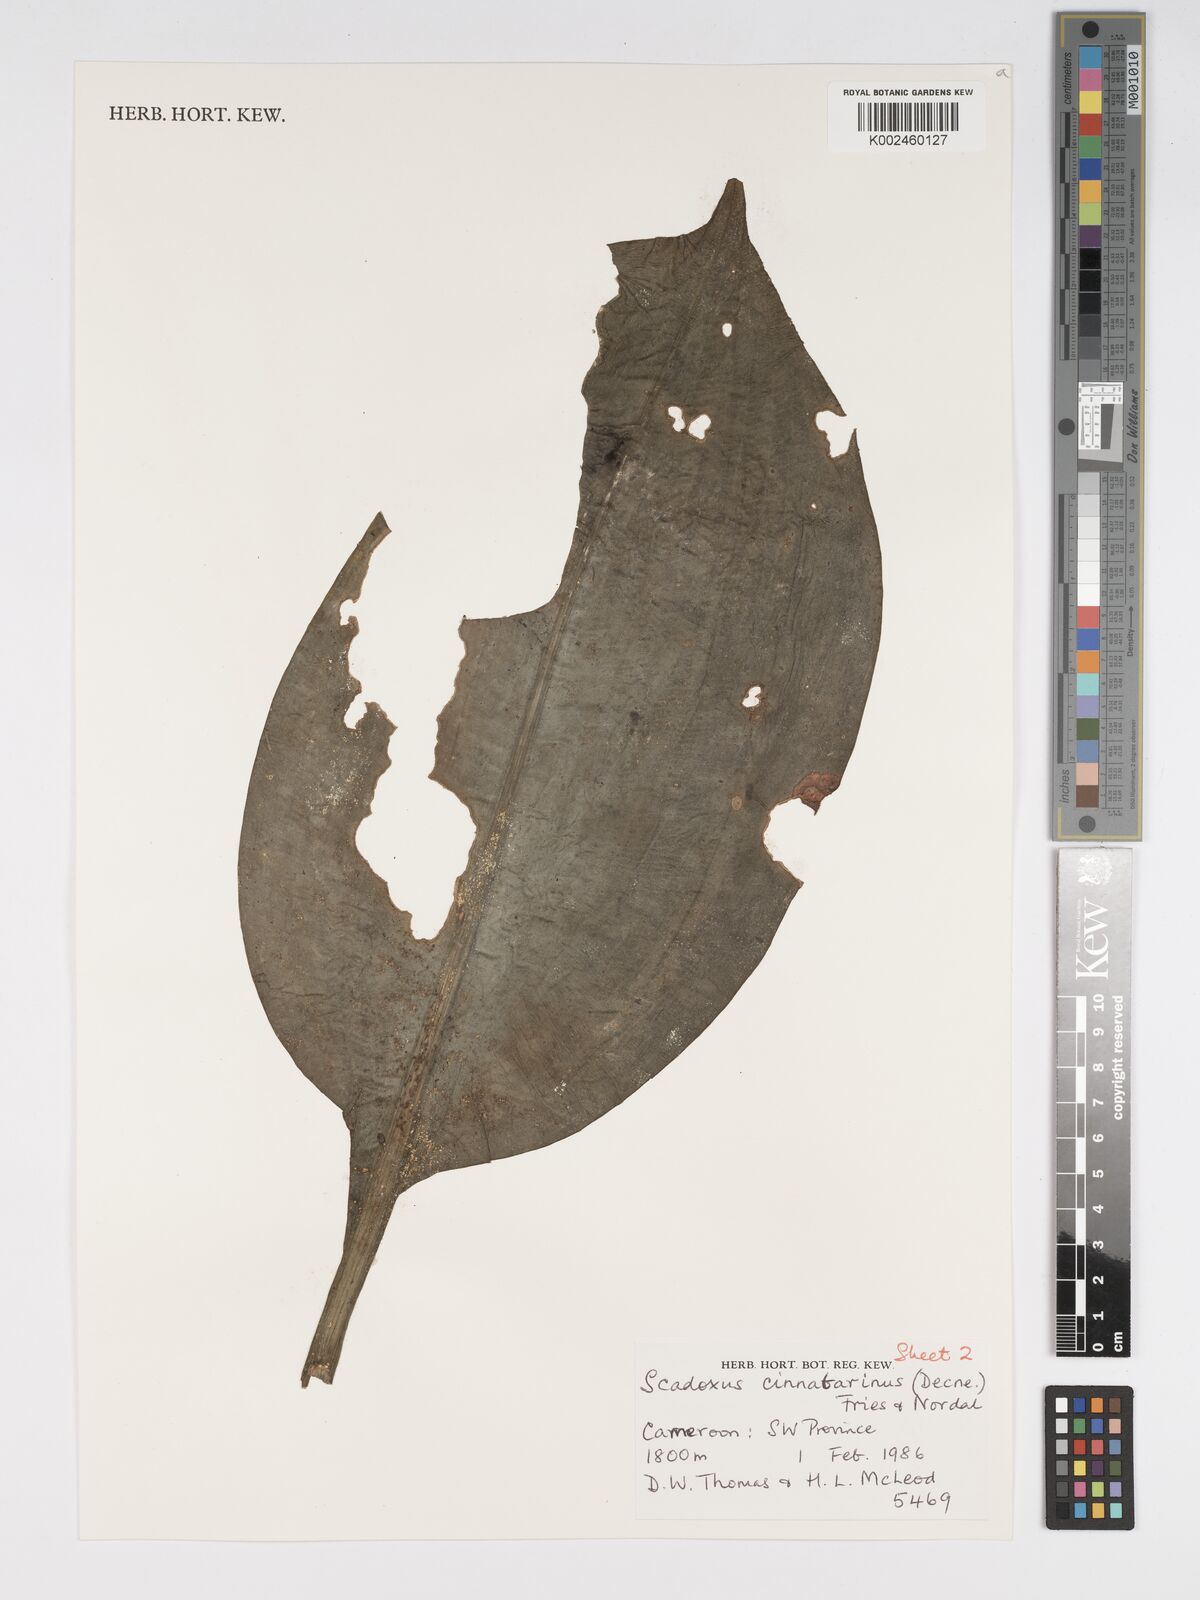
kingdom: Plantae
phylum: Tracheophyta
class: Liliopsida
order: Asparagales
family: Amaryllidaceae
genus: Scadoxus
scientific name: Scadoxus cinnabarinus
